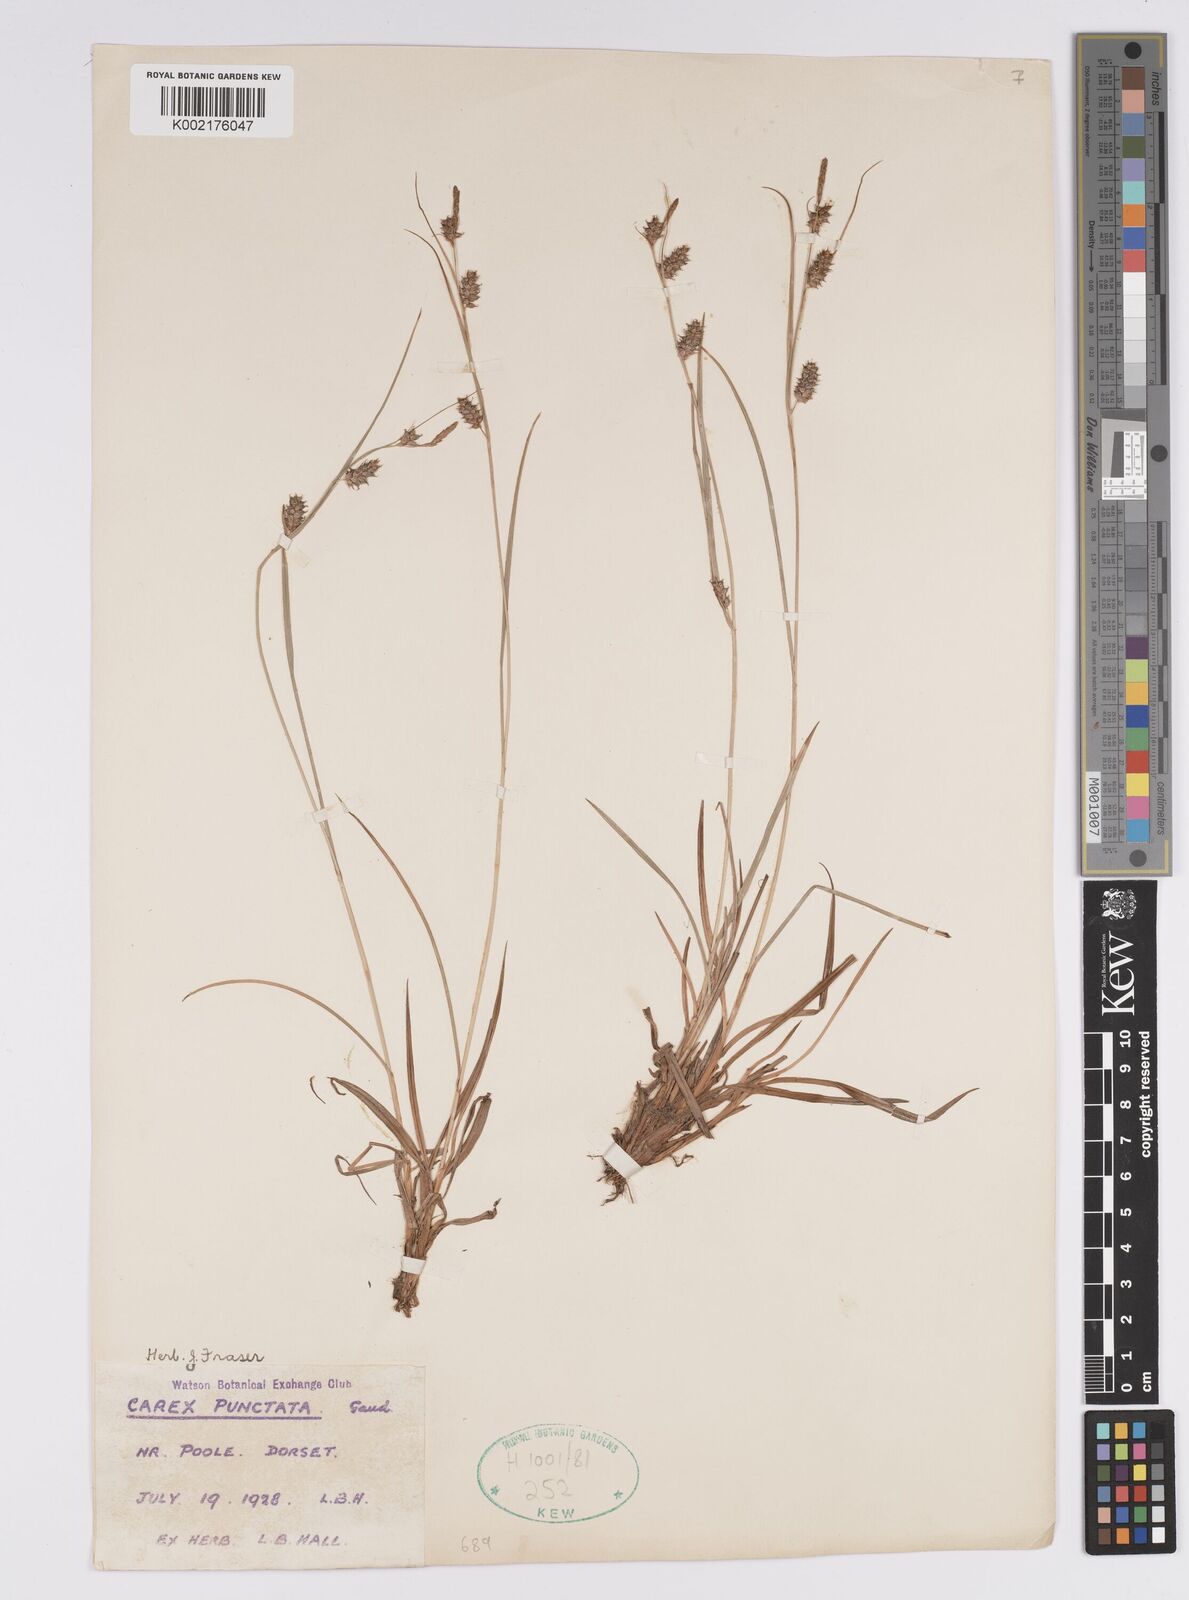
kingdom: Plantae
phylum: Tracheophyta
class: Liliopsida
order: Poales
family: Cyperaceae
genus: Carex
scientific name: Carex punctata
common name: Dotted sedge
